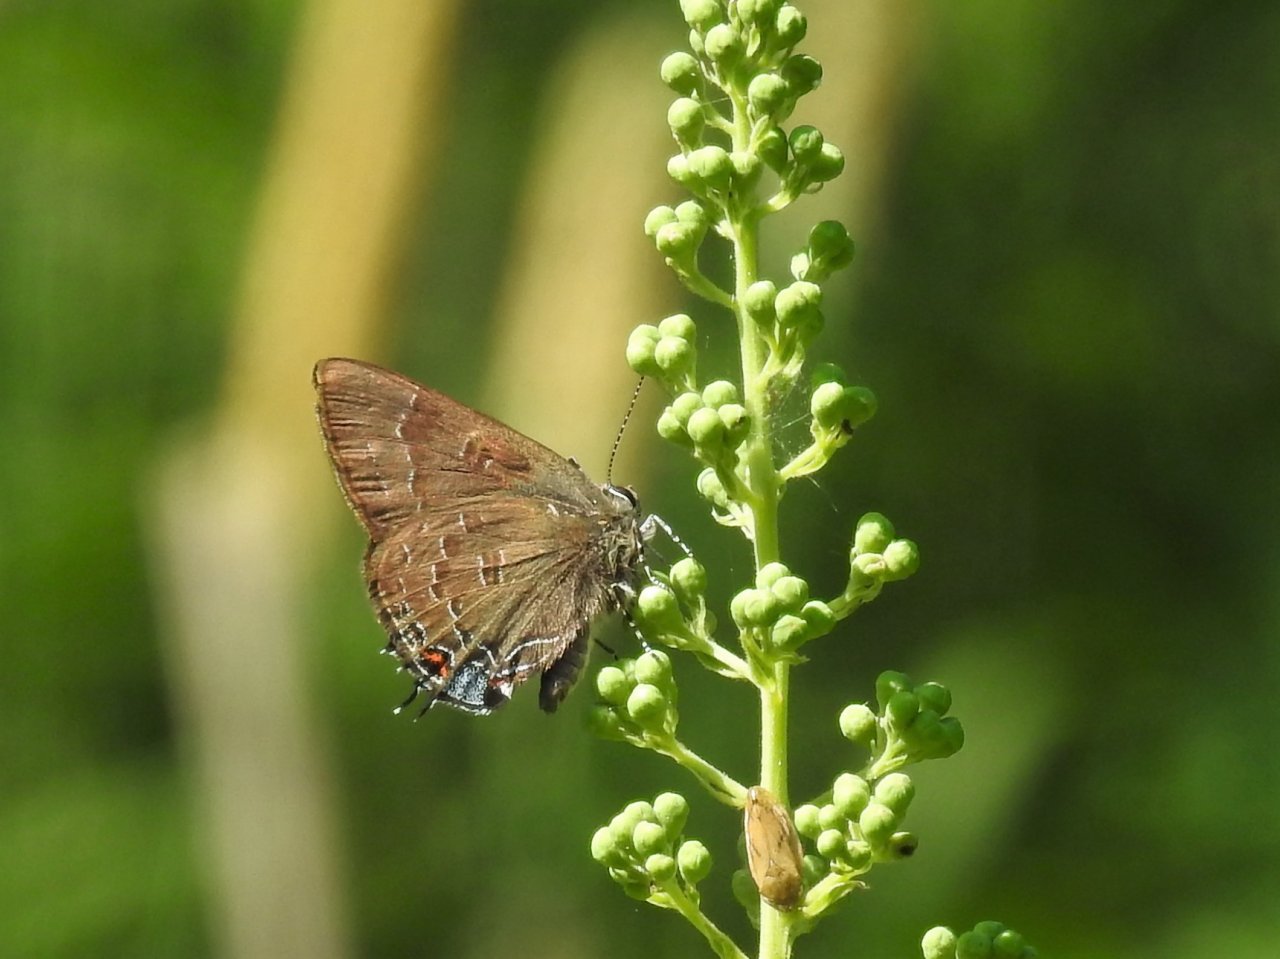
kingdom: Animalia
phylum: Arthropoda
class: Insecta
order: Lepidoptera
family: Lycaenidae
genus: Satyrium
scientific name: Satyrium calanus
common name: Banded Hairstreak
